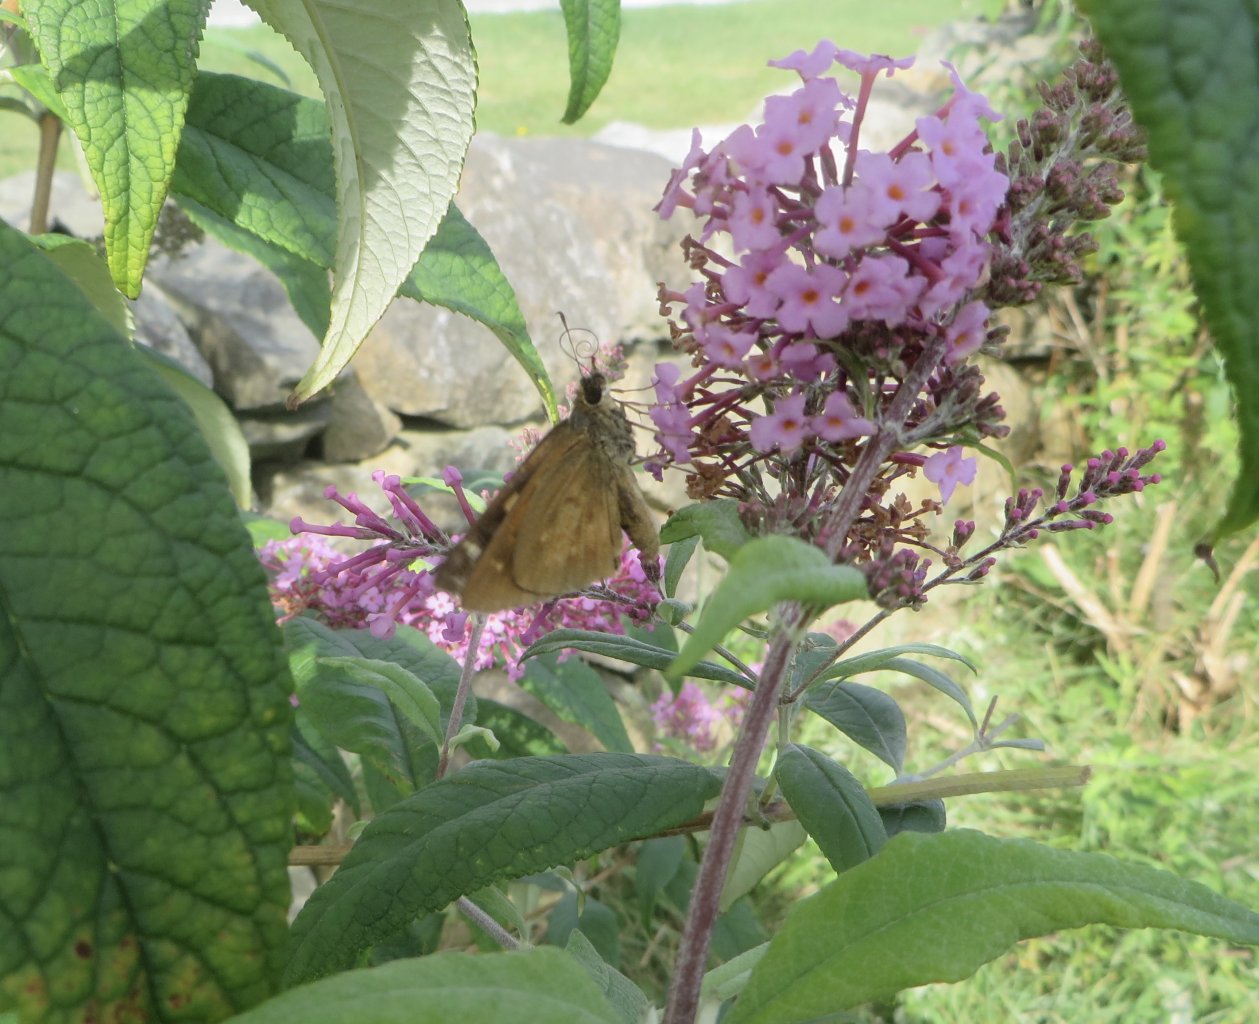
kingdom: Animalia
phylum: Arthropoda
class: Insecta
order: Lepidoptera
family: Hesperiidae
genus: Poanes
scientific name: Poanes viator
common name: Broad-winged Skipper
